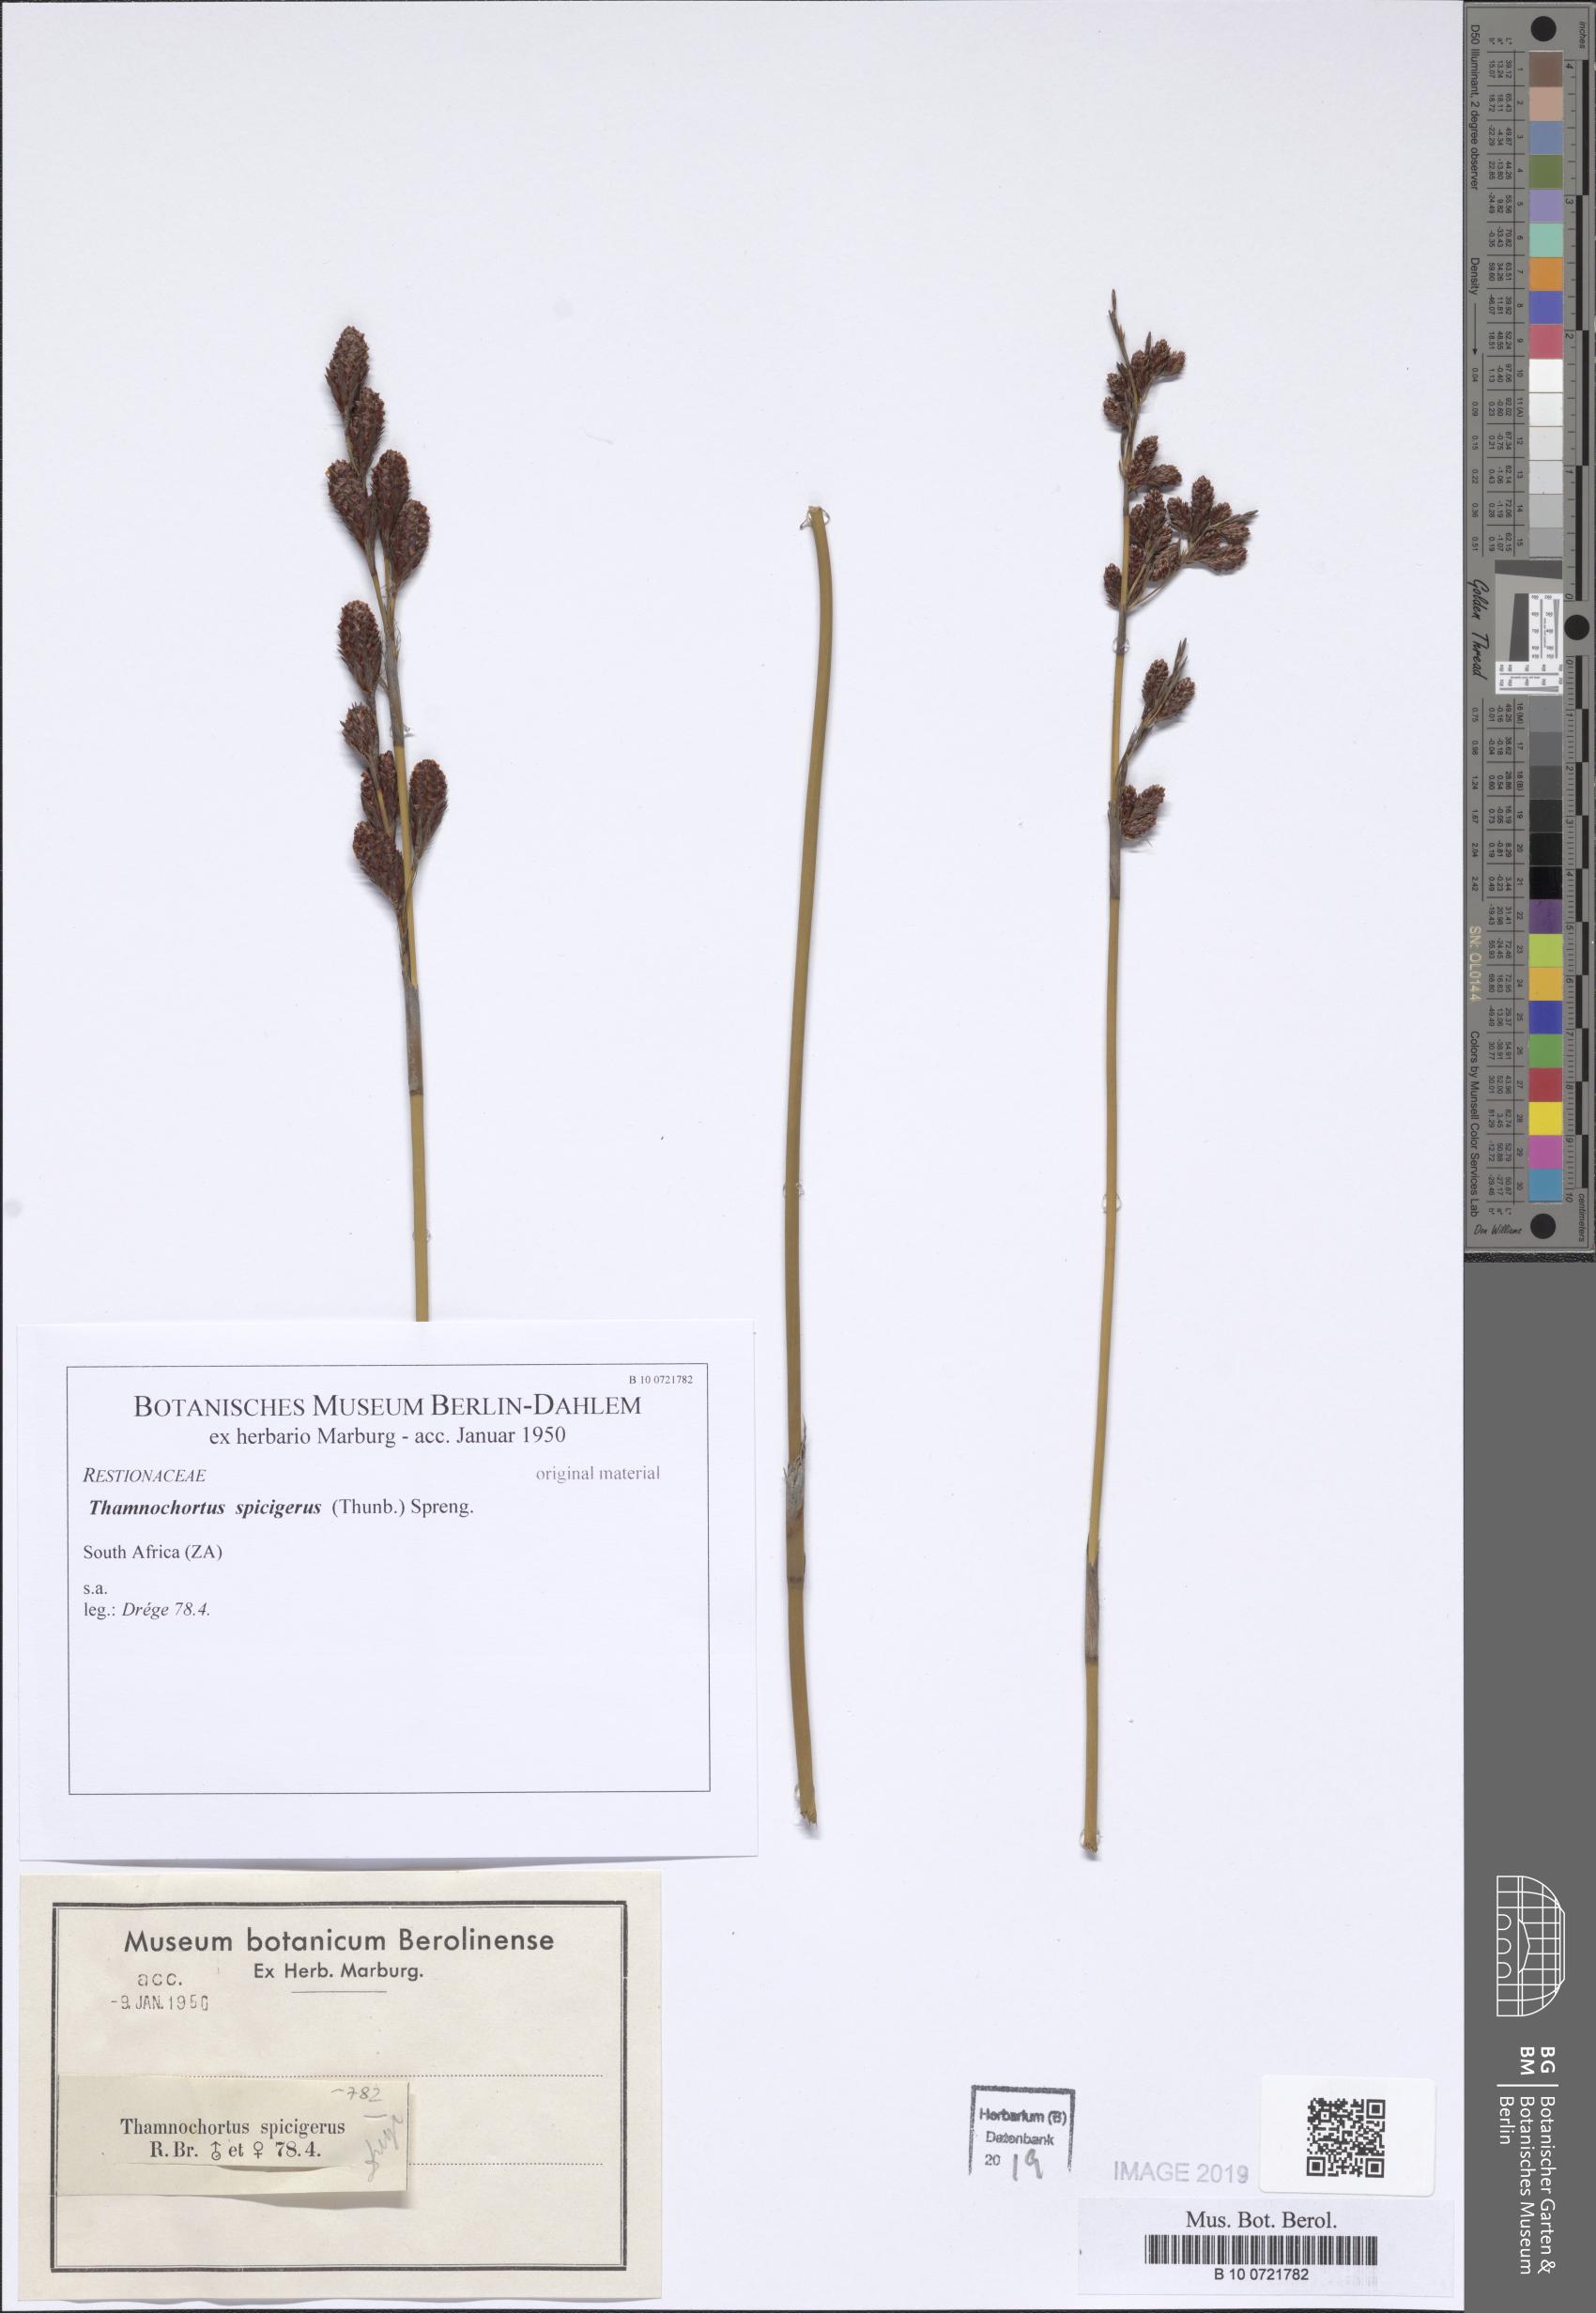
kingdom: Plantae
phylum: Tracheophyta
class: Liliopsida
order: Poales
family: Restionaceae
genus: Thamnochortus
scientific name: Thamnochortus spicigerus
